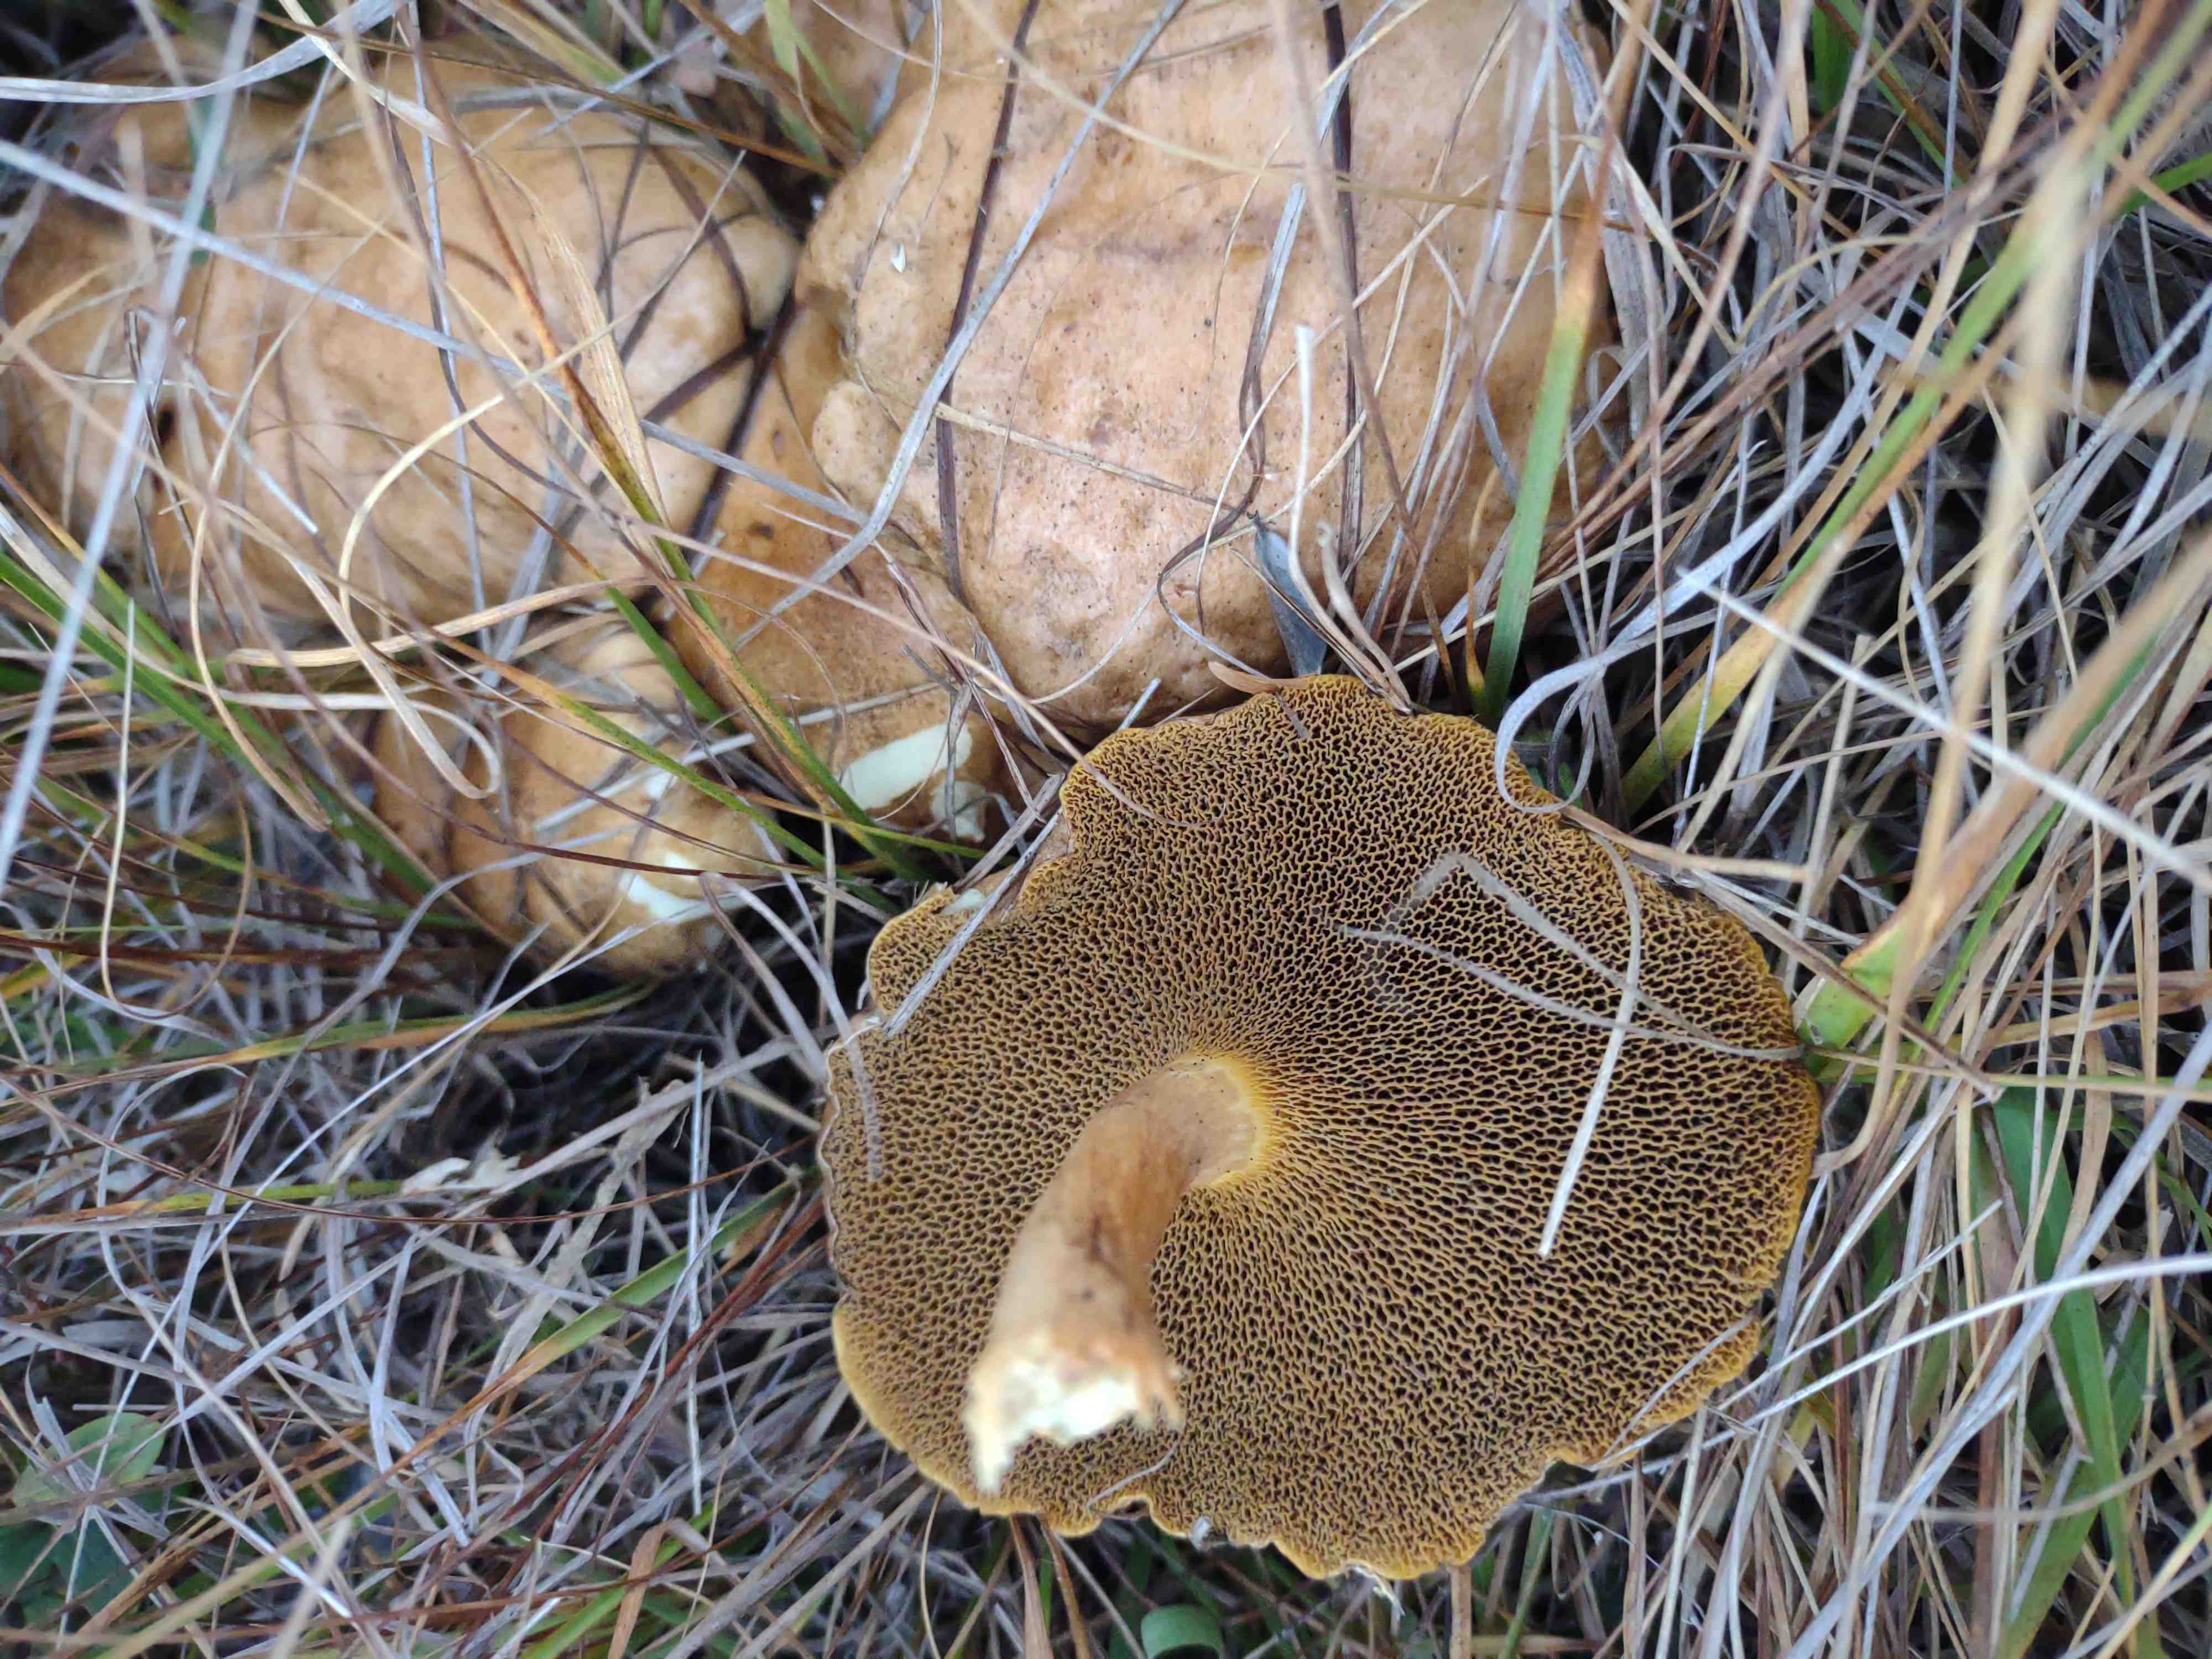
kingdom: Fungi
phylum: Basidiomycota
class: Agaricomycetes
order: Boletales
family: Suillaceae
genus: Suillus
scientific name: Suillus bovinus
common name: grovporet slimrørhat
